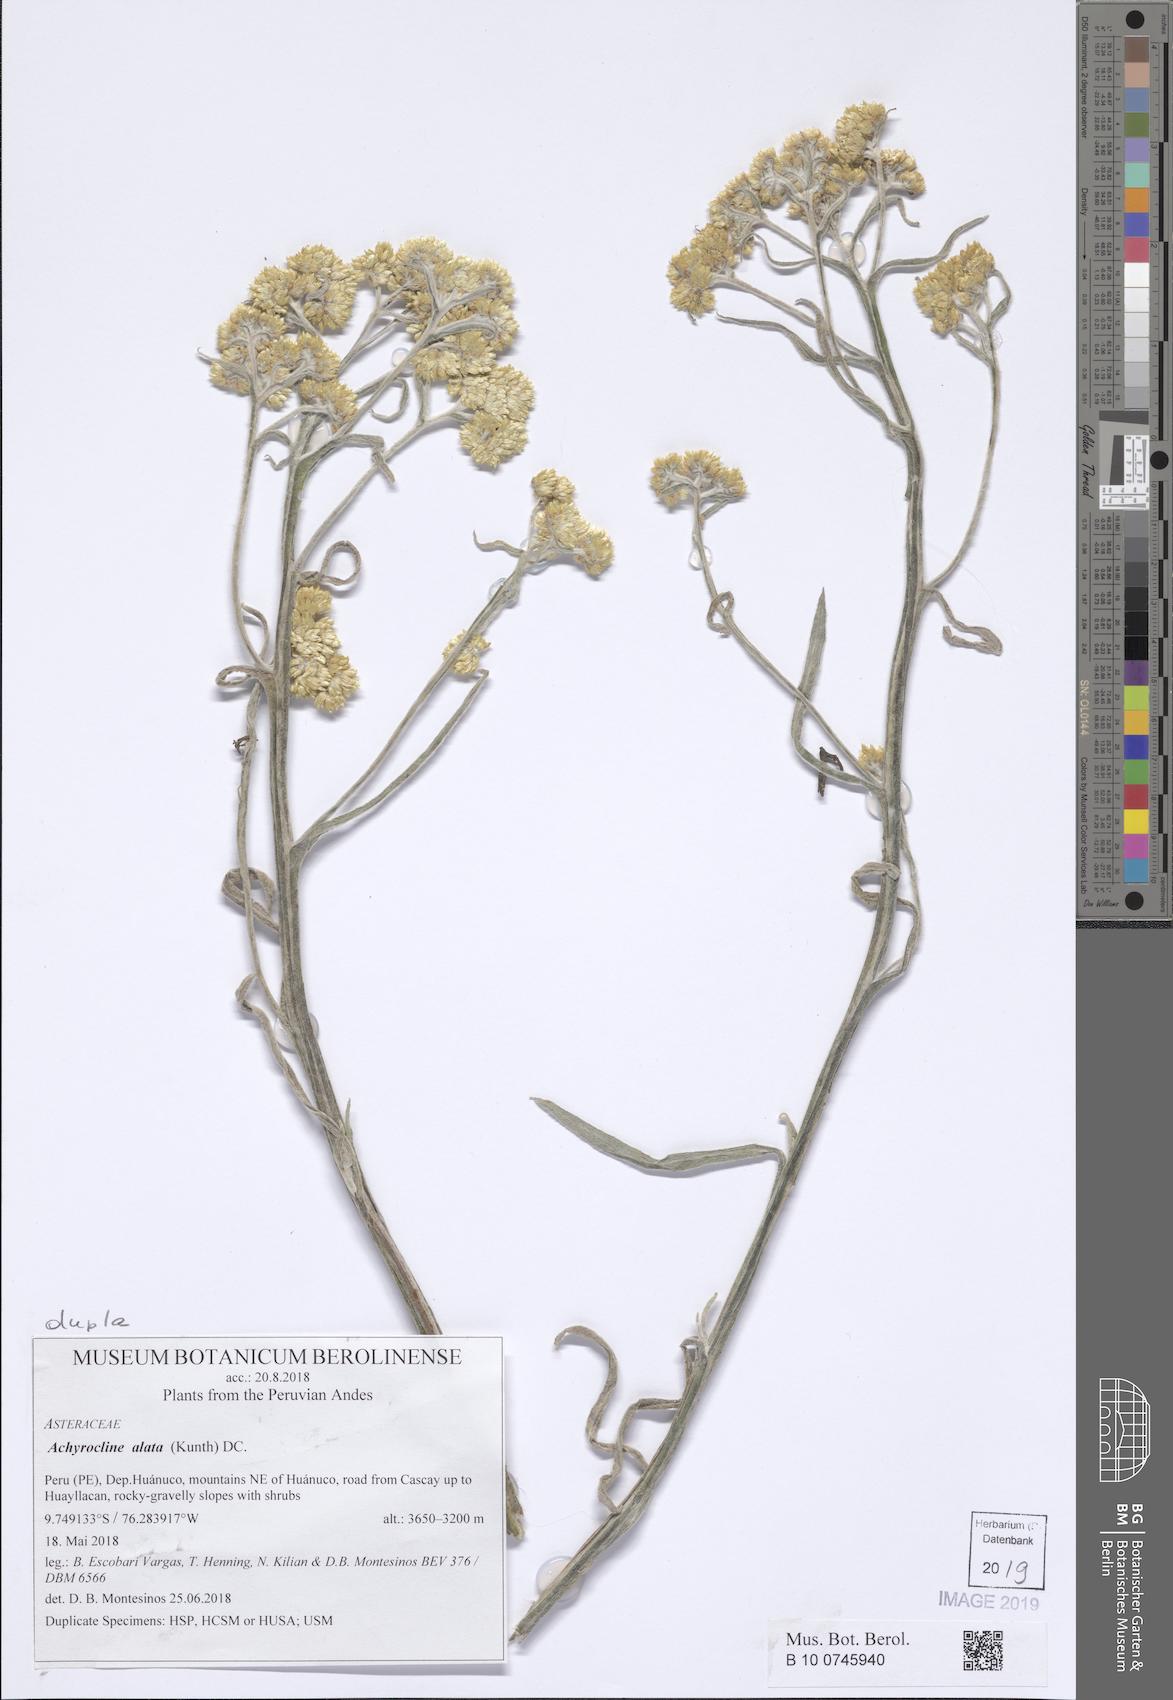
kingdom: Plantae
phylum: Tracheophyta
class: Magnoliopsida
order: Asterales
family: Asteraceae
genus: Achyrocline
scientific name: Achyrocline alata
